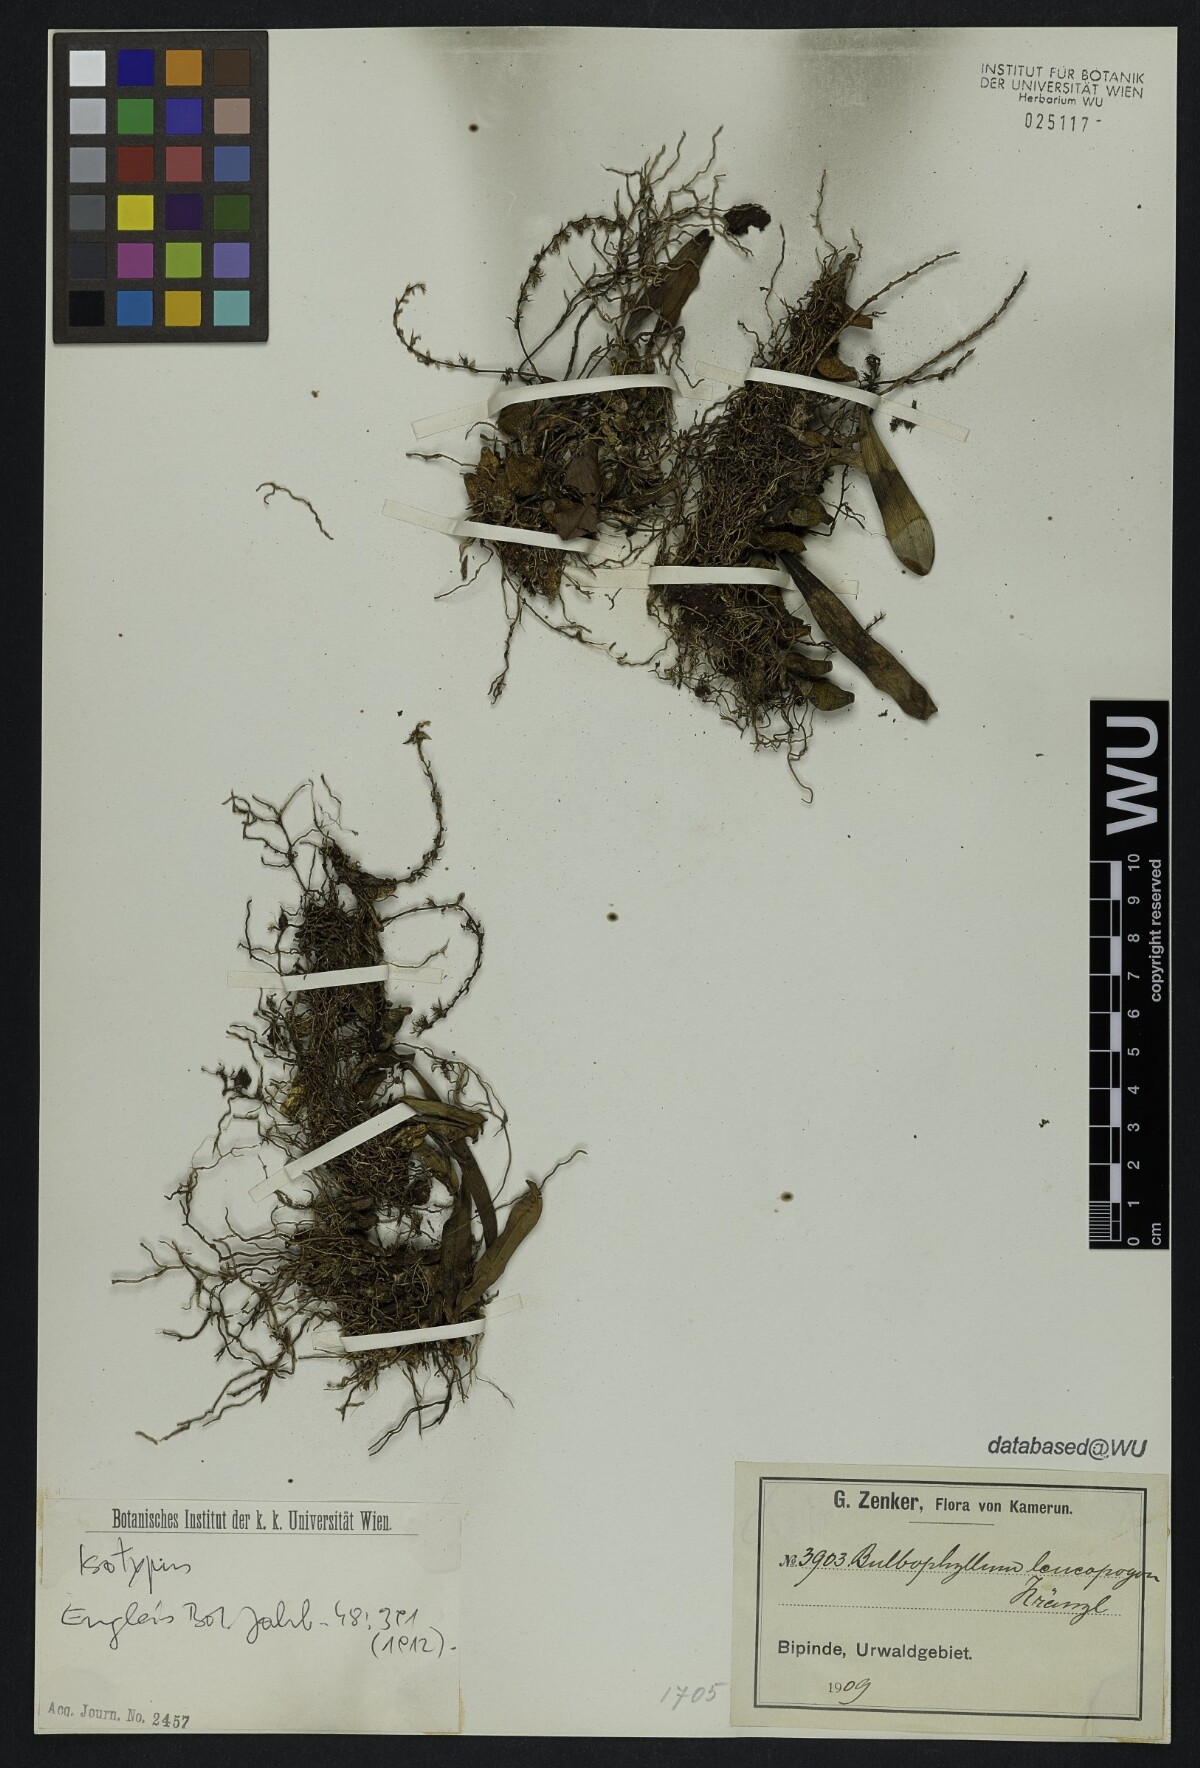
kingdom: Plantae
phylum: Tracheophyta
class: Liliopsida
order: Asparagales
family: Orchidaceae
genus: Bulbophyllum
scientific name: Bulbophyllum pumilum
